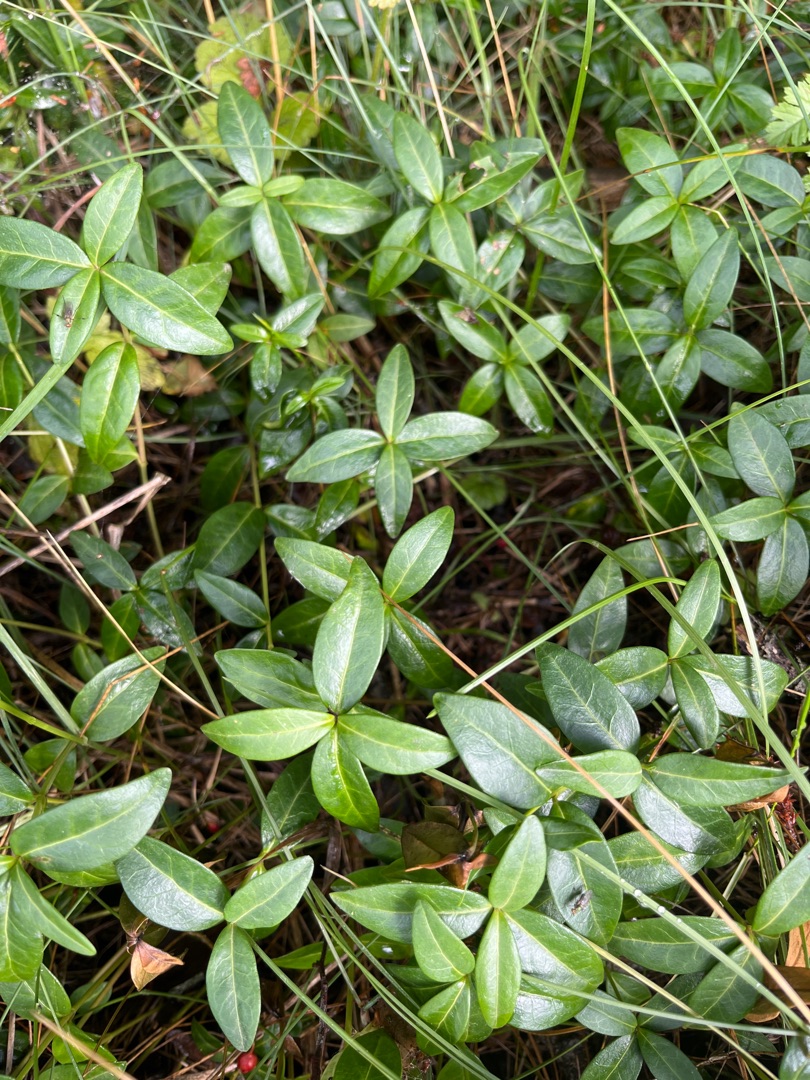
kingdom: Plantae
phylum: Tracheophyta
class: Magnoliopsida
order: Gentianales
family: Apocynaceae
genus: Vinca
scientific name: Vinca minor
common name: Liden singrøn
